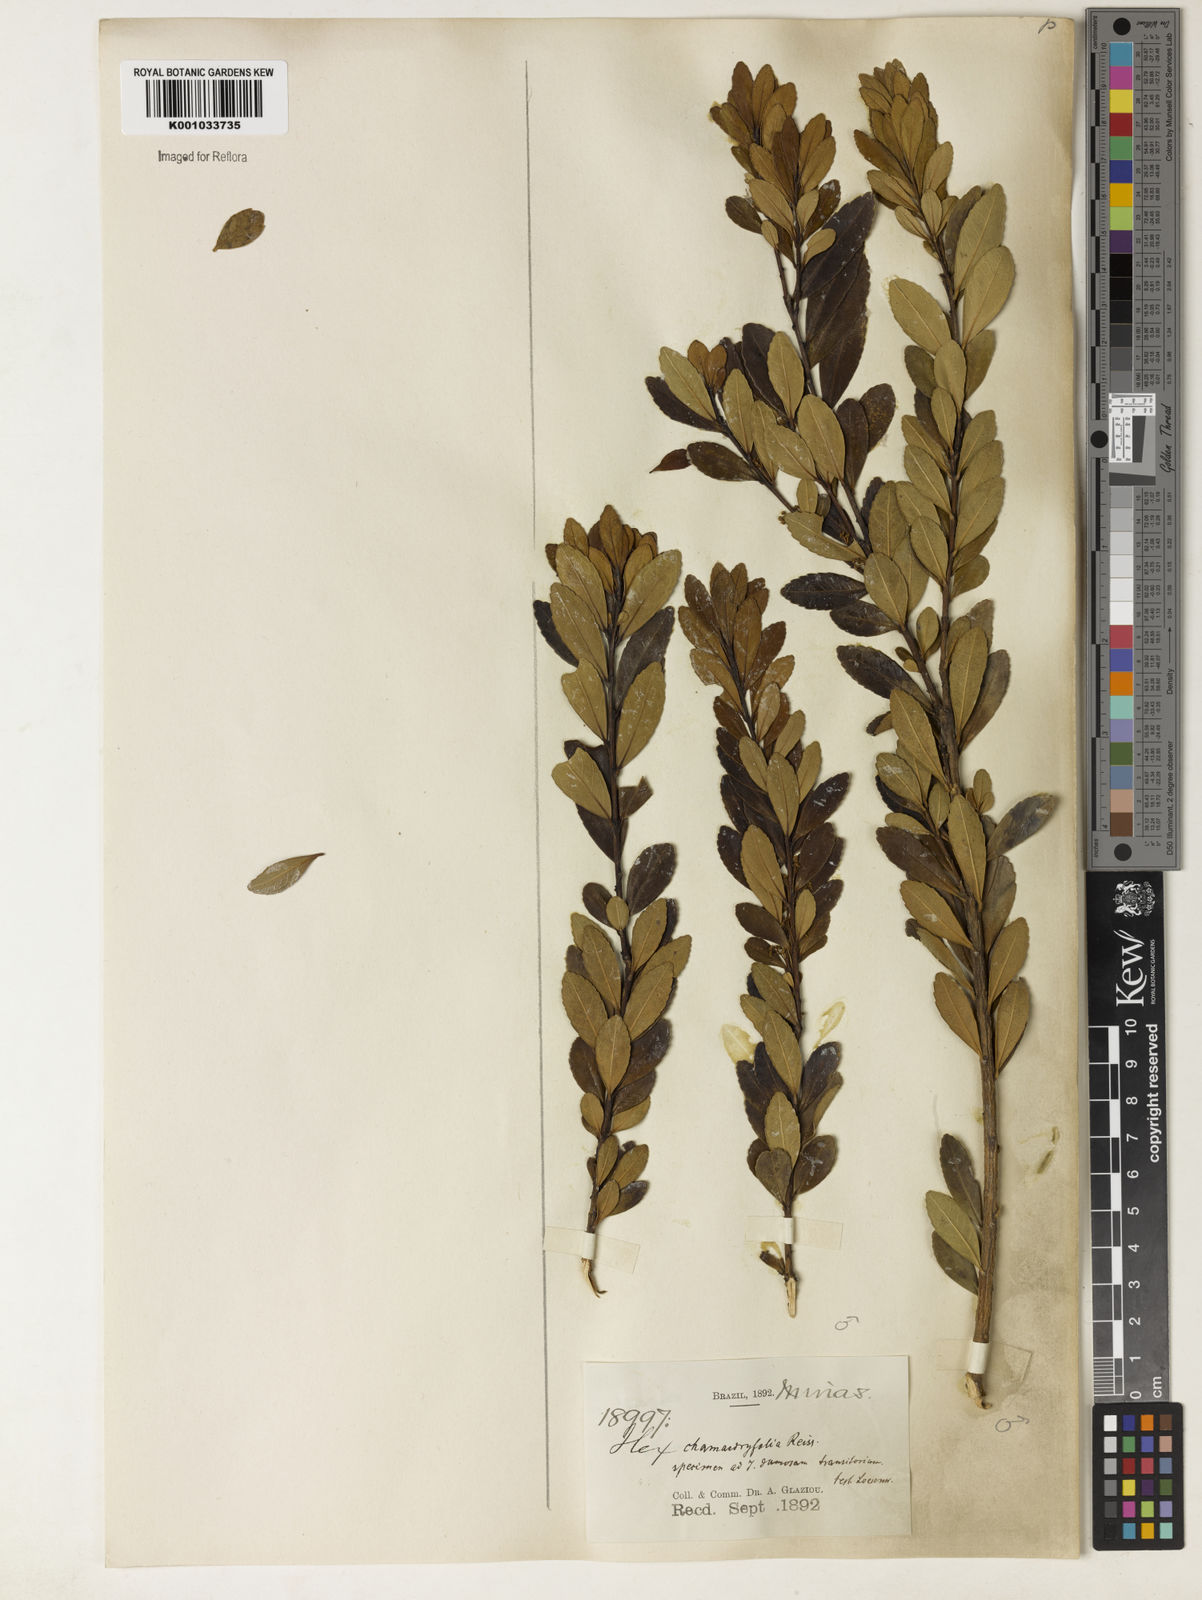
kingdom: Plantae
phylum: Tracheophyta
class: Magnoliopsida
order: Aquifoliales
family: Aquifoliaceae
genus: Ilex
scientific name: Ilex chamaedryfolia
